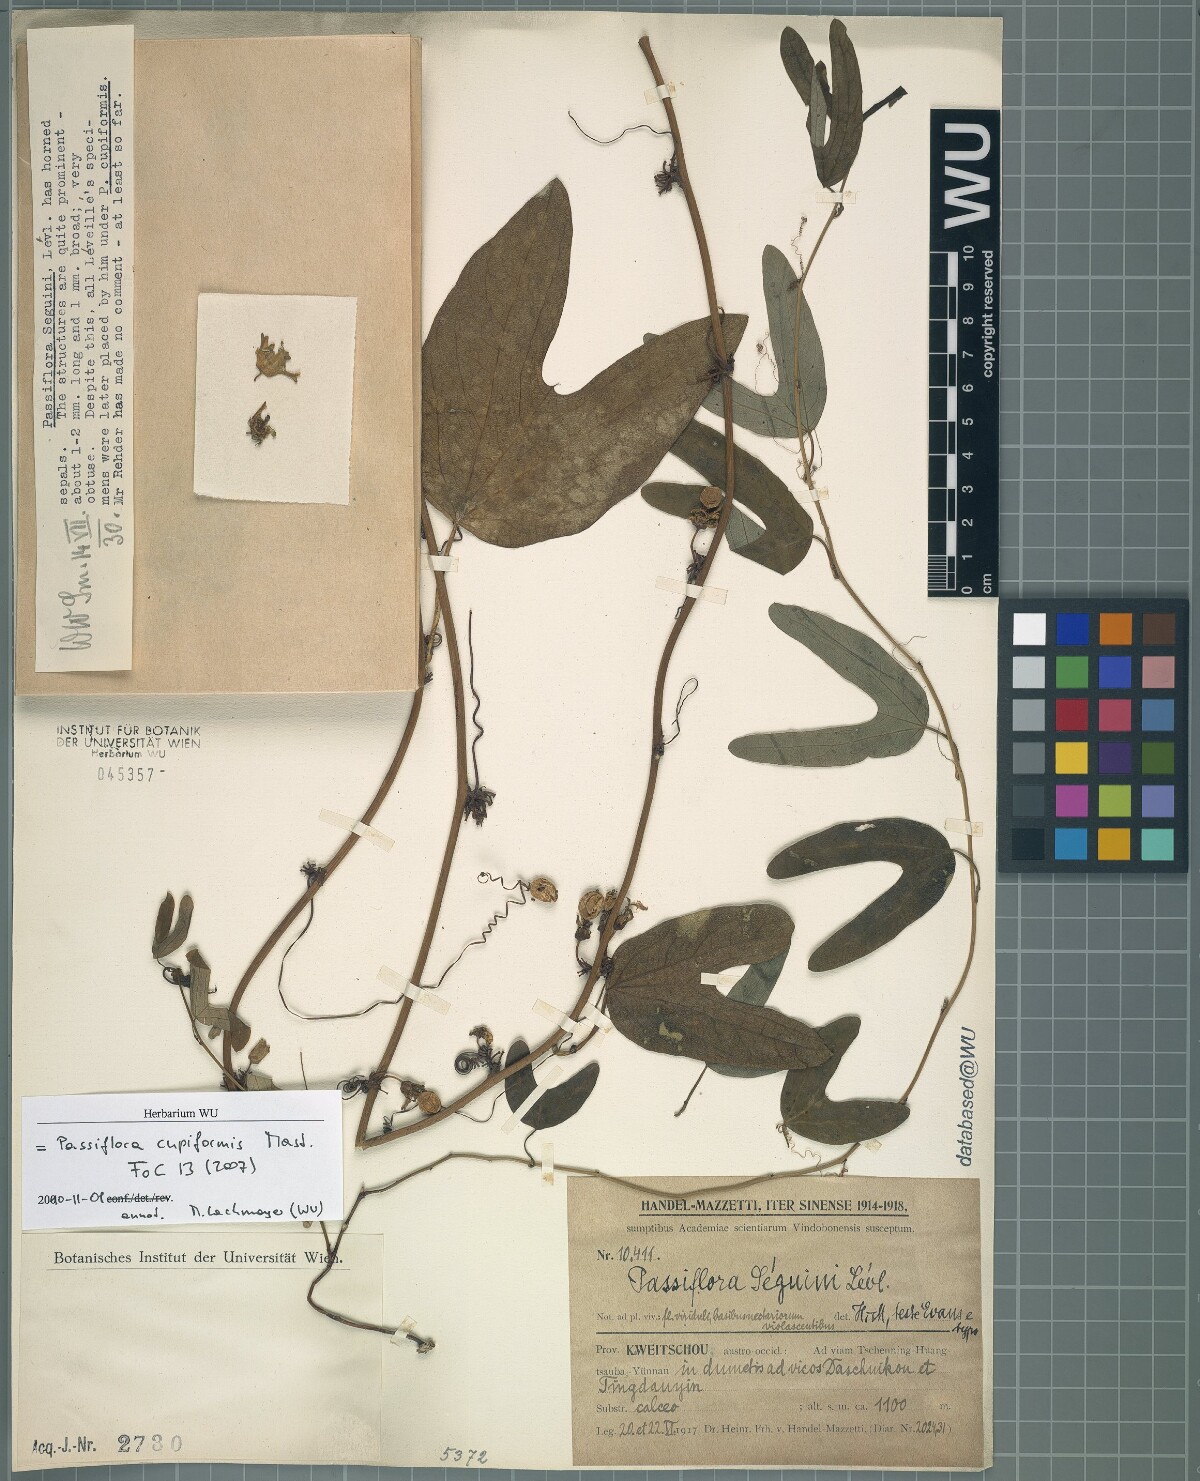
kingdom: Plantae
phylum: Tracheophyta
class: Magnoliopsida
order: Malpighiales
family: Passifloraceae
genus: Passiflora
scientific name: Passiflora cupiformis
